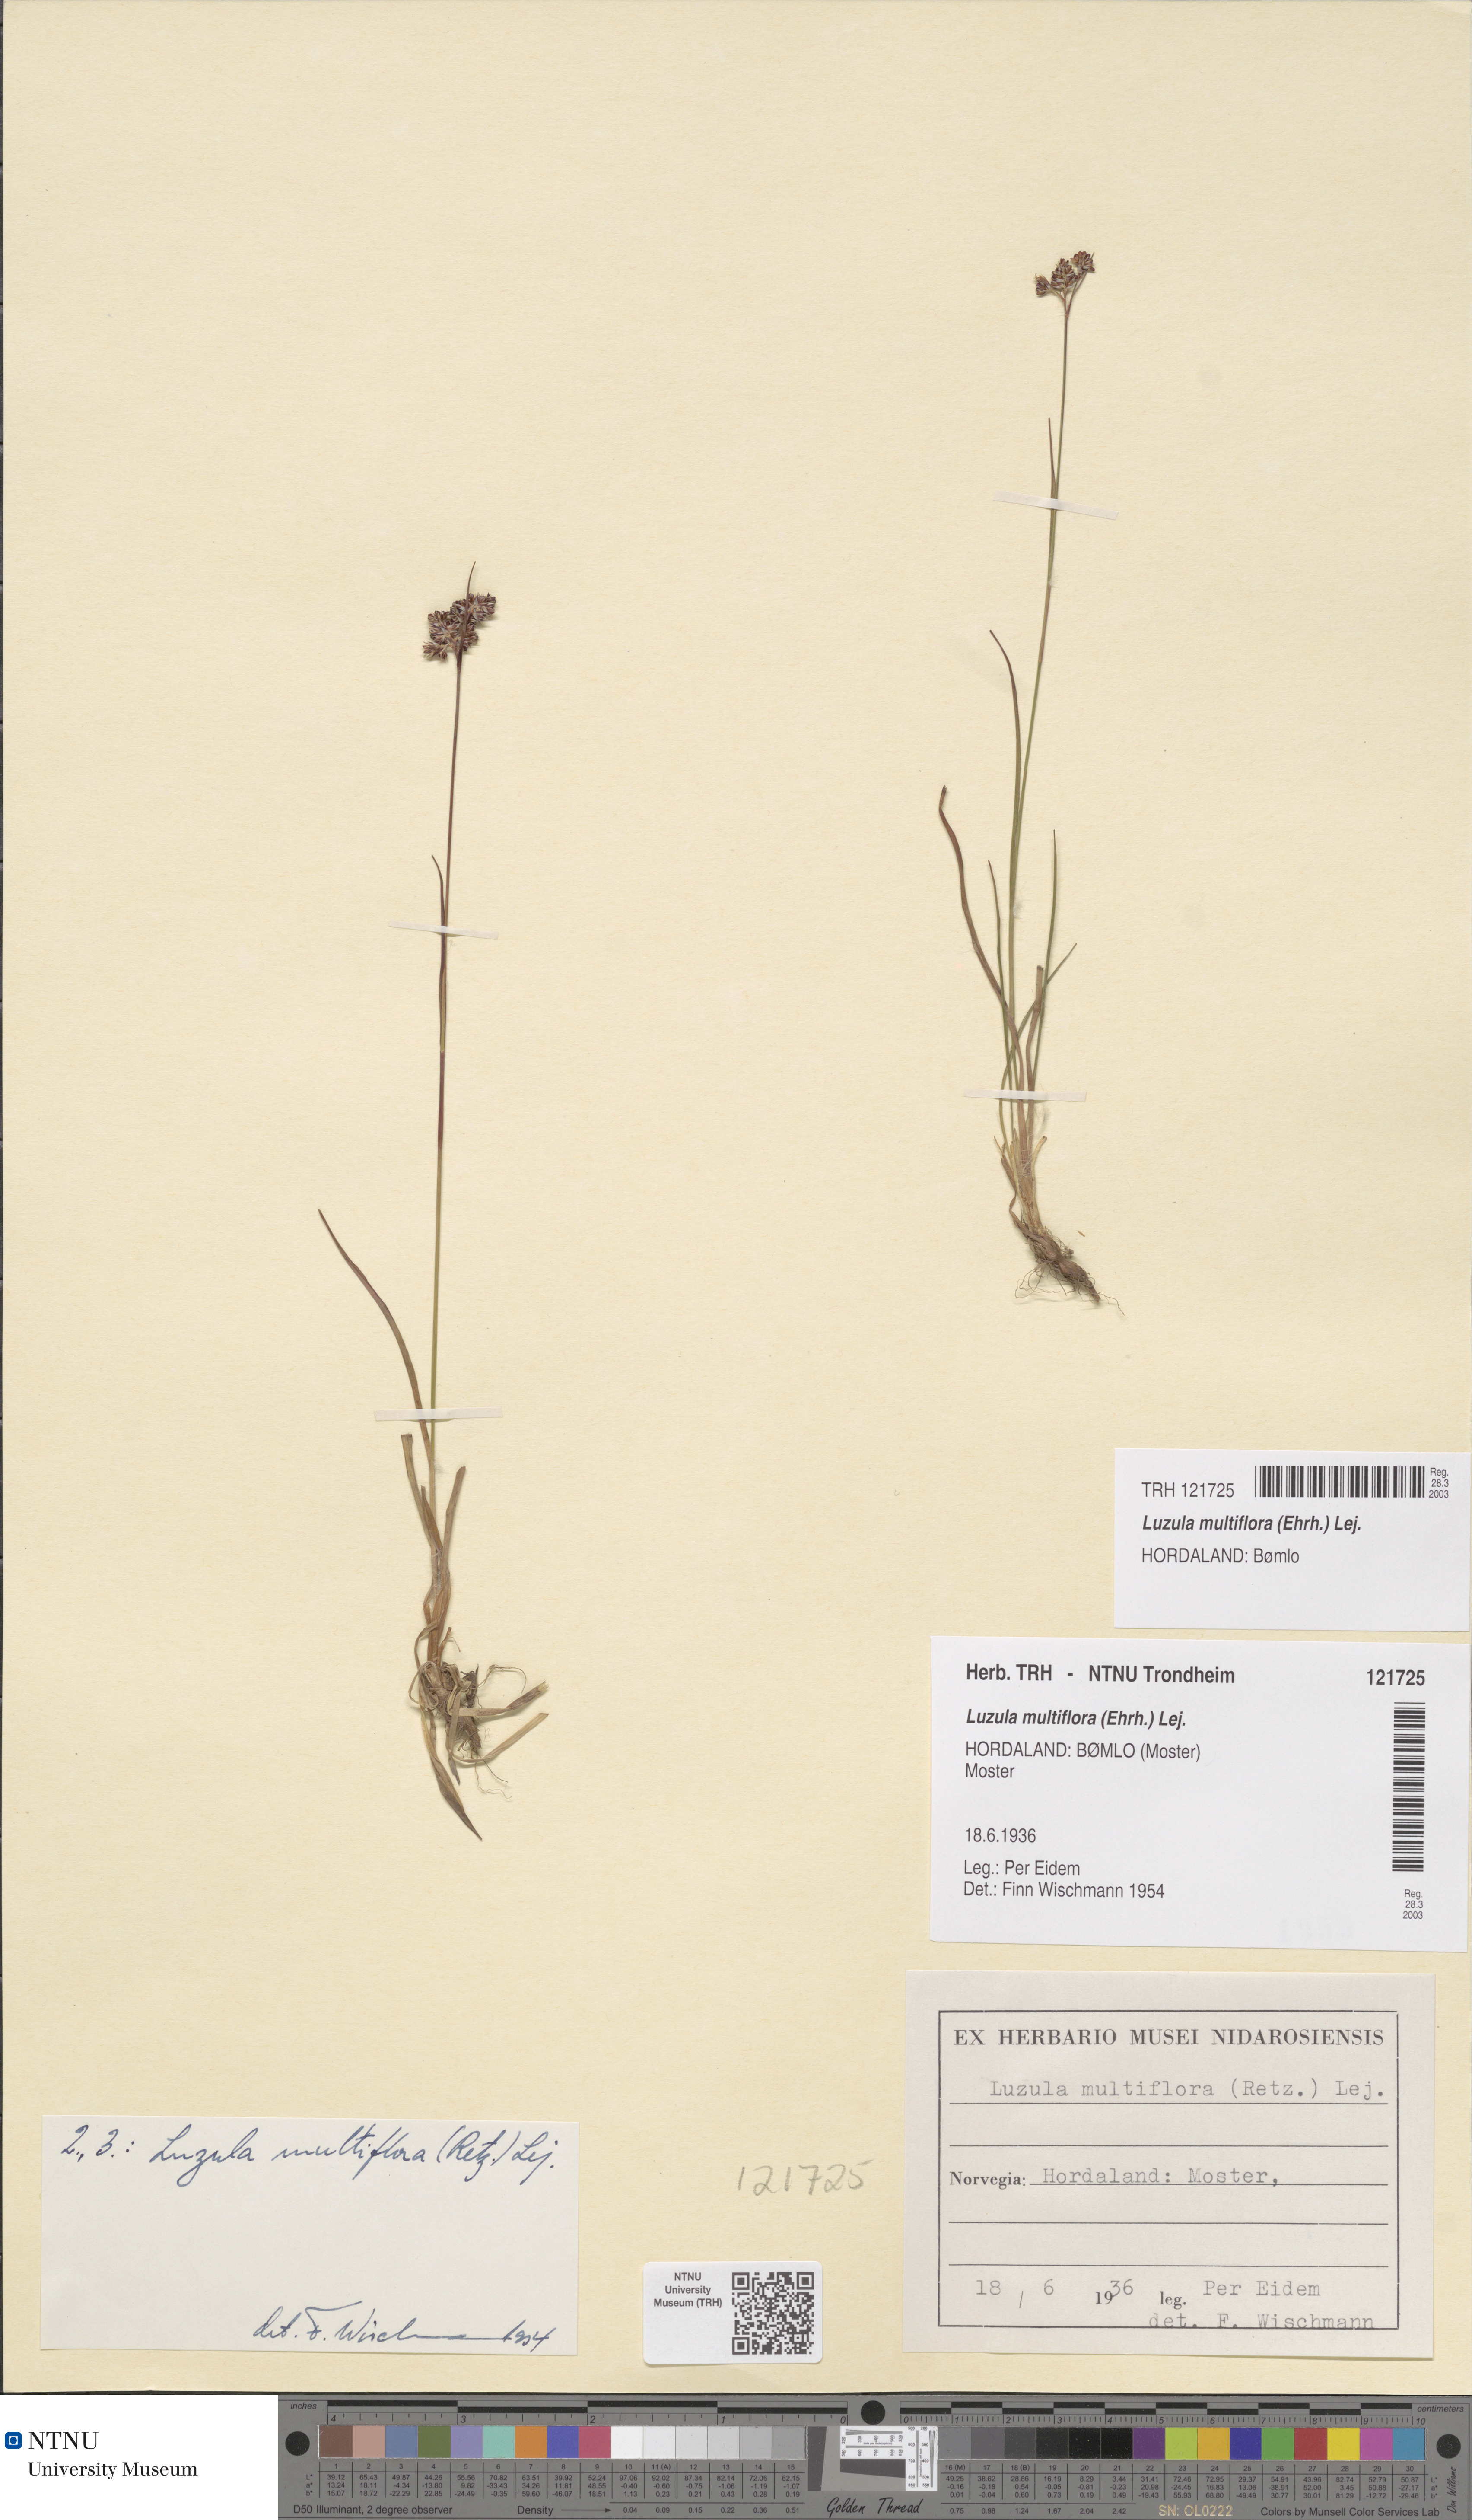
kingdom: Plantae
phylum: Tracheophyta
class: Liliopsida
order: Poales
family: Juncaceae
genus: Luzula
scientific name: Luzula multiflora
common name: Heath wood-rush
